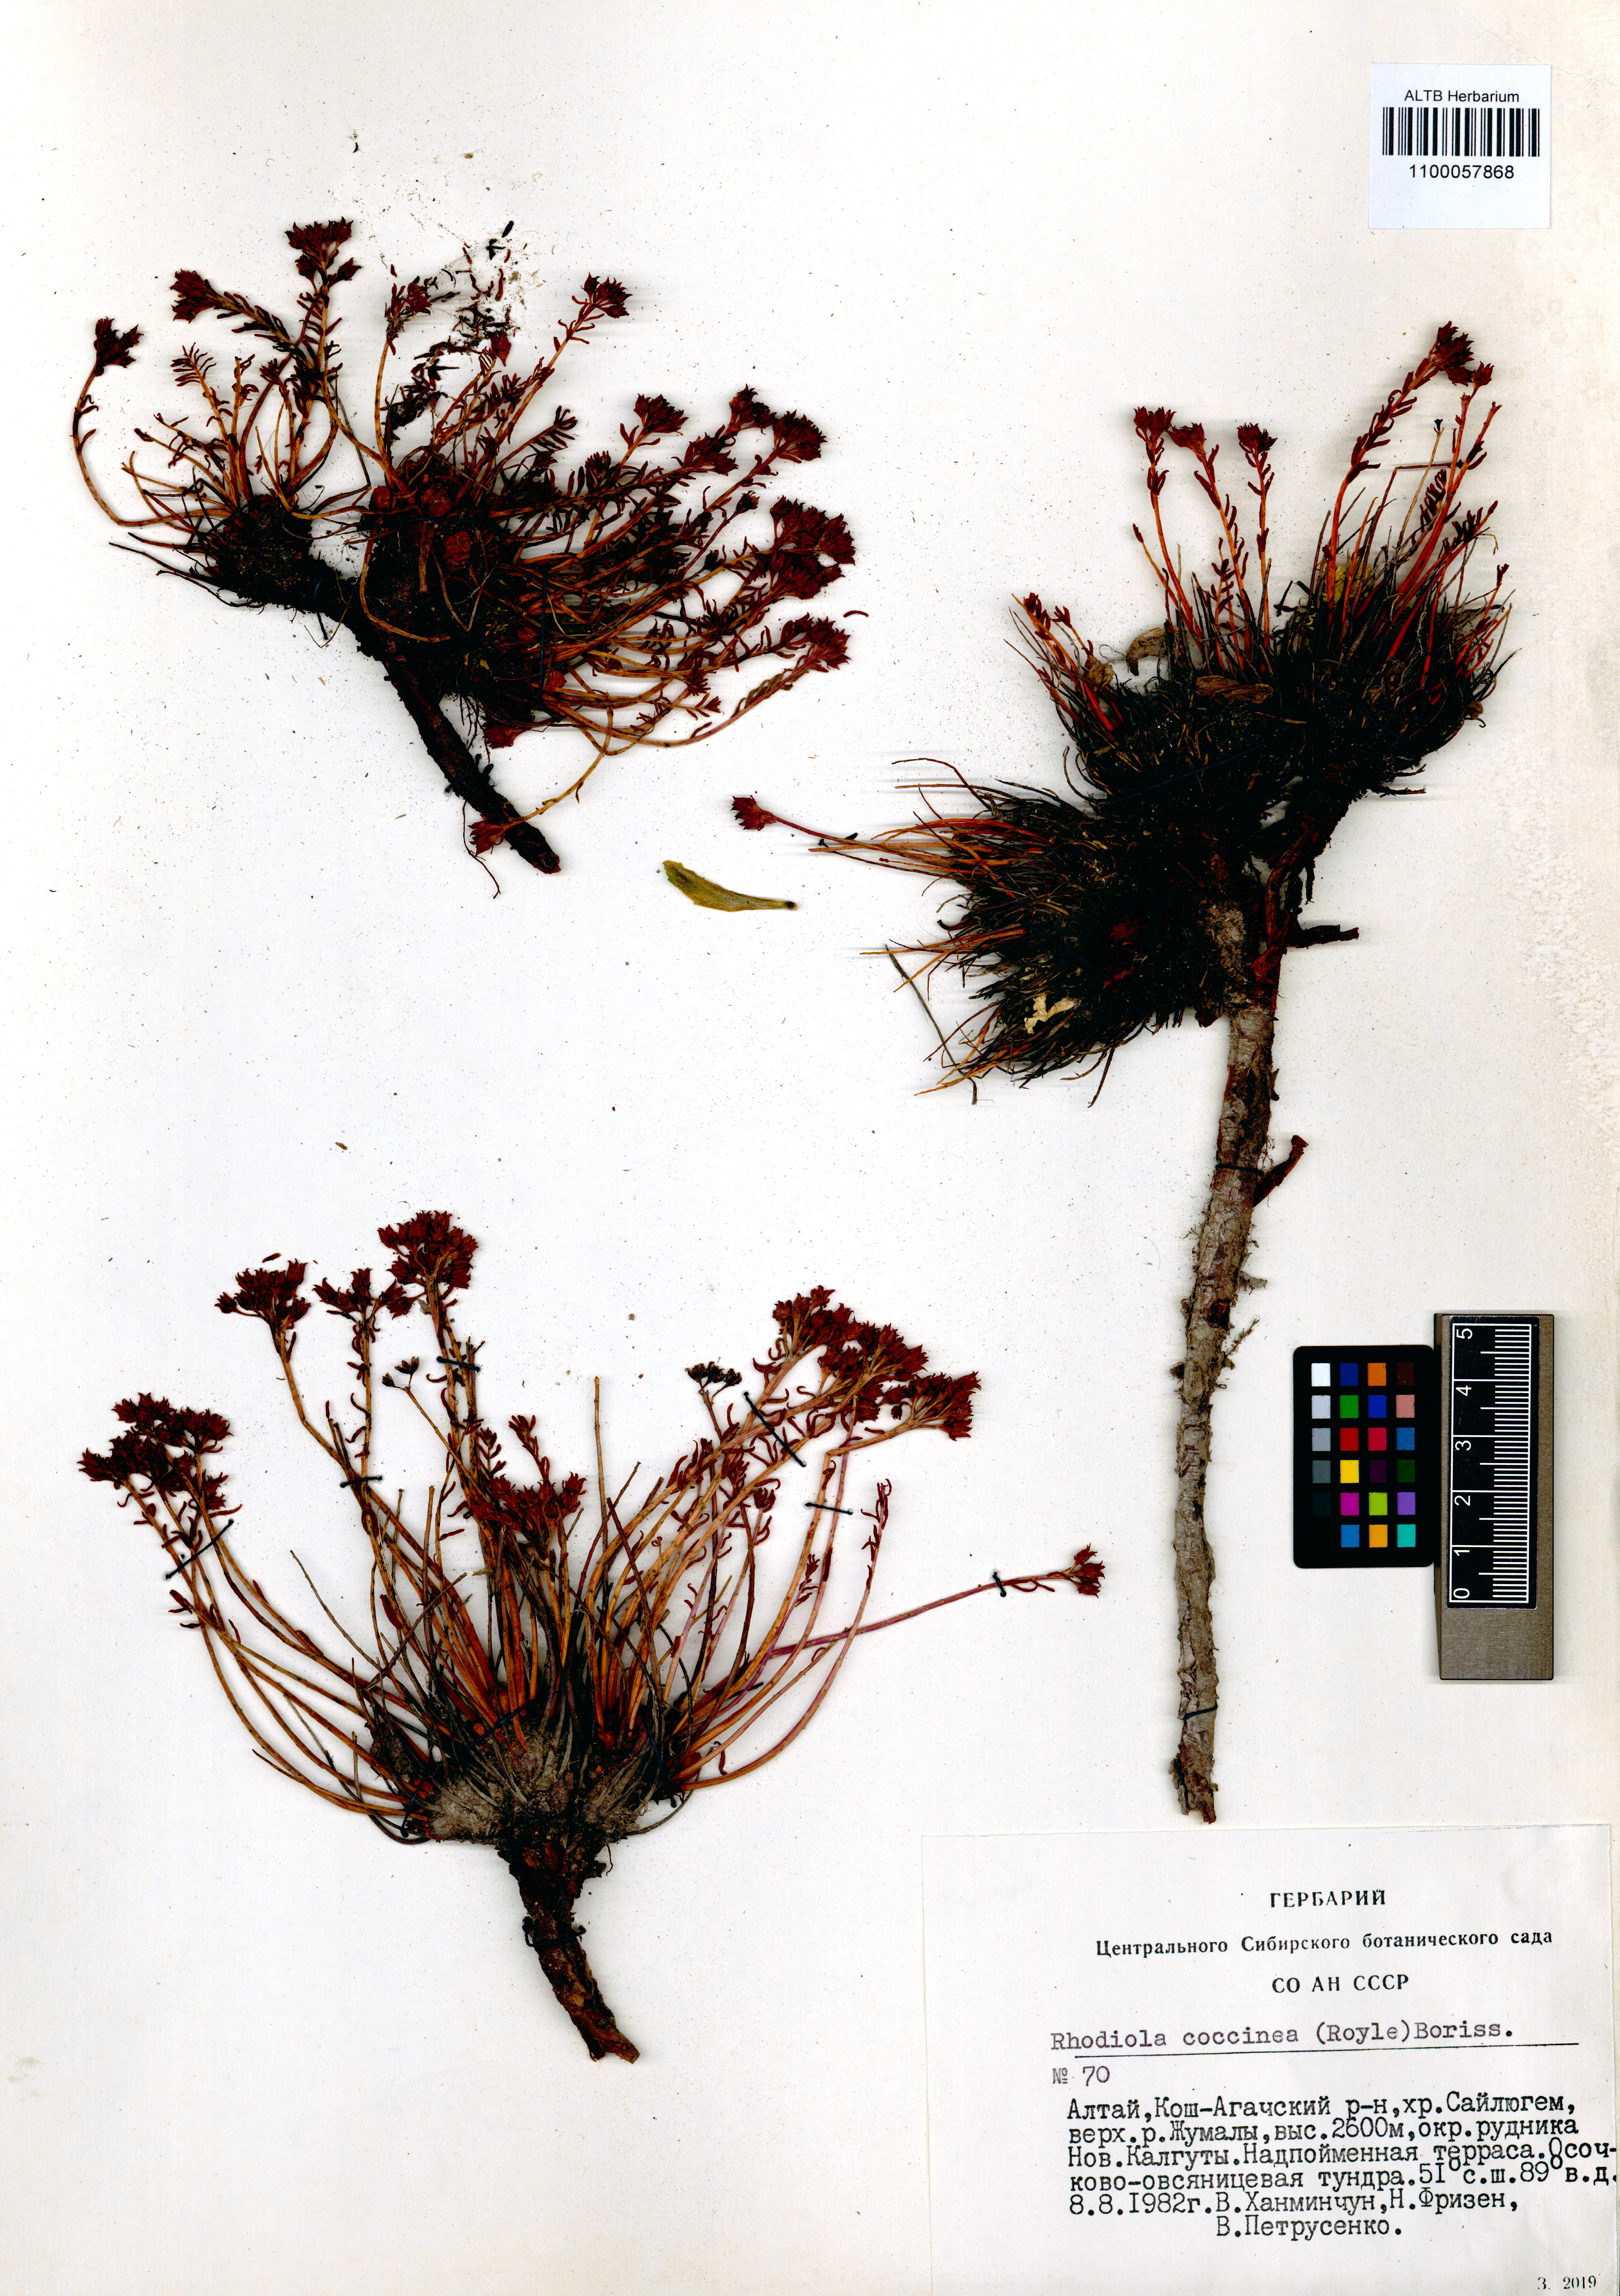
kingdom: Plantae
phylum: Tracheophyta
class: Magnoliopsida
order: Saxifragales
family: Crassulaceae
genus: Rhodiola
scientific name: Rhodiola coccinea
